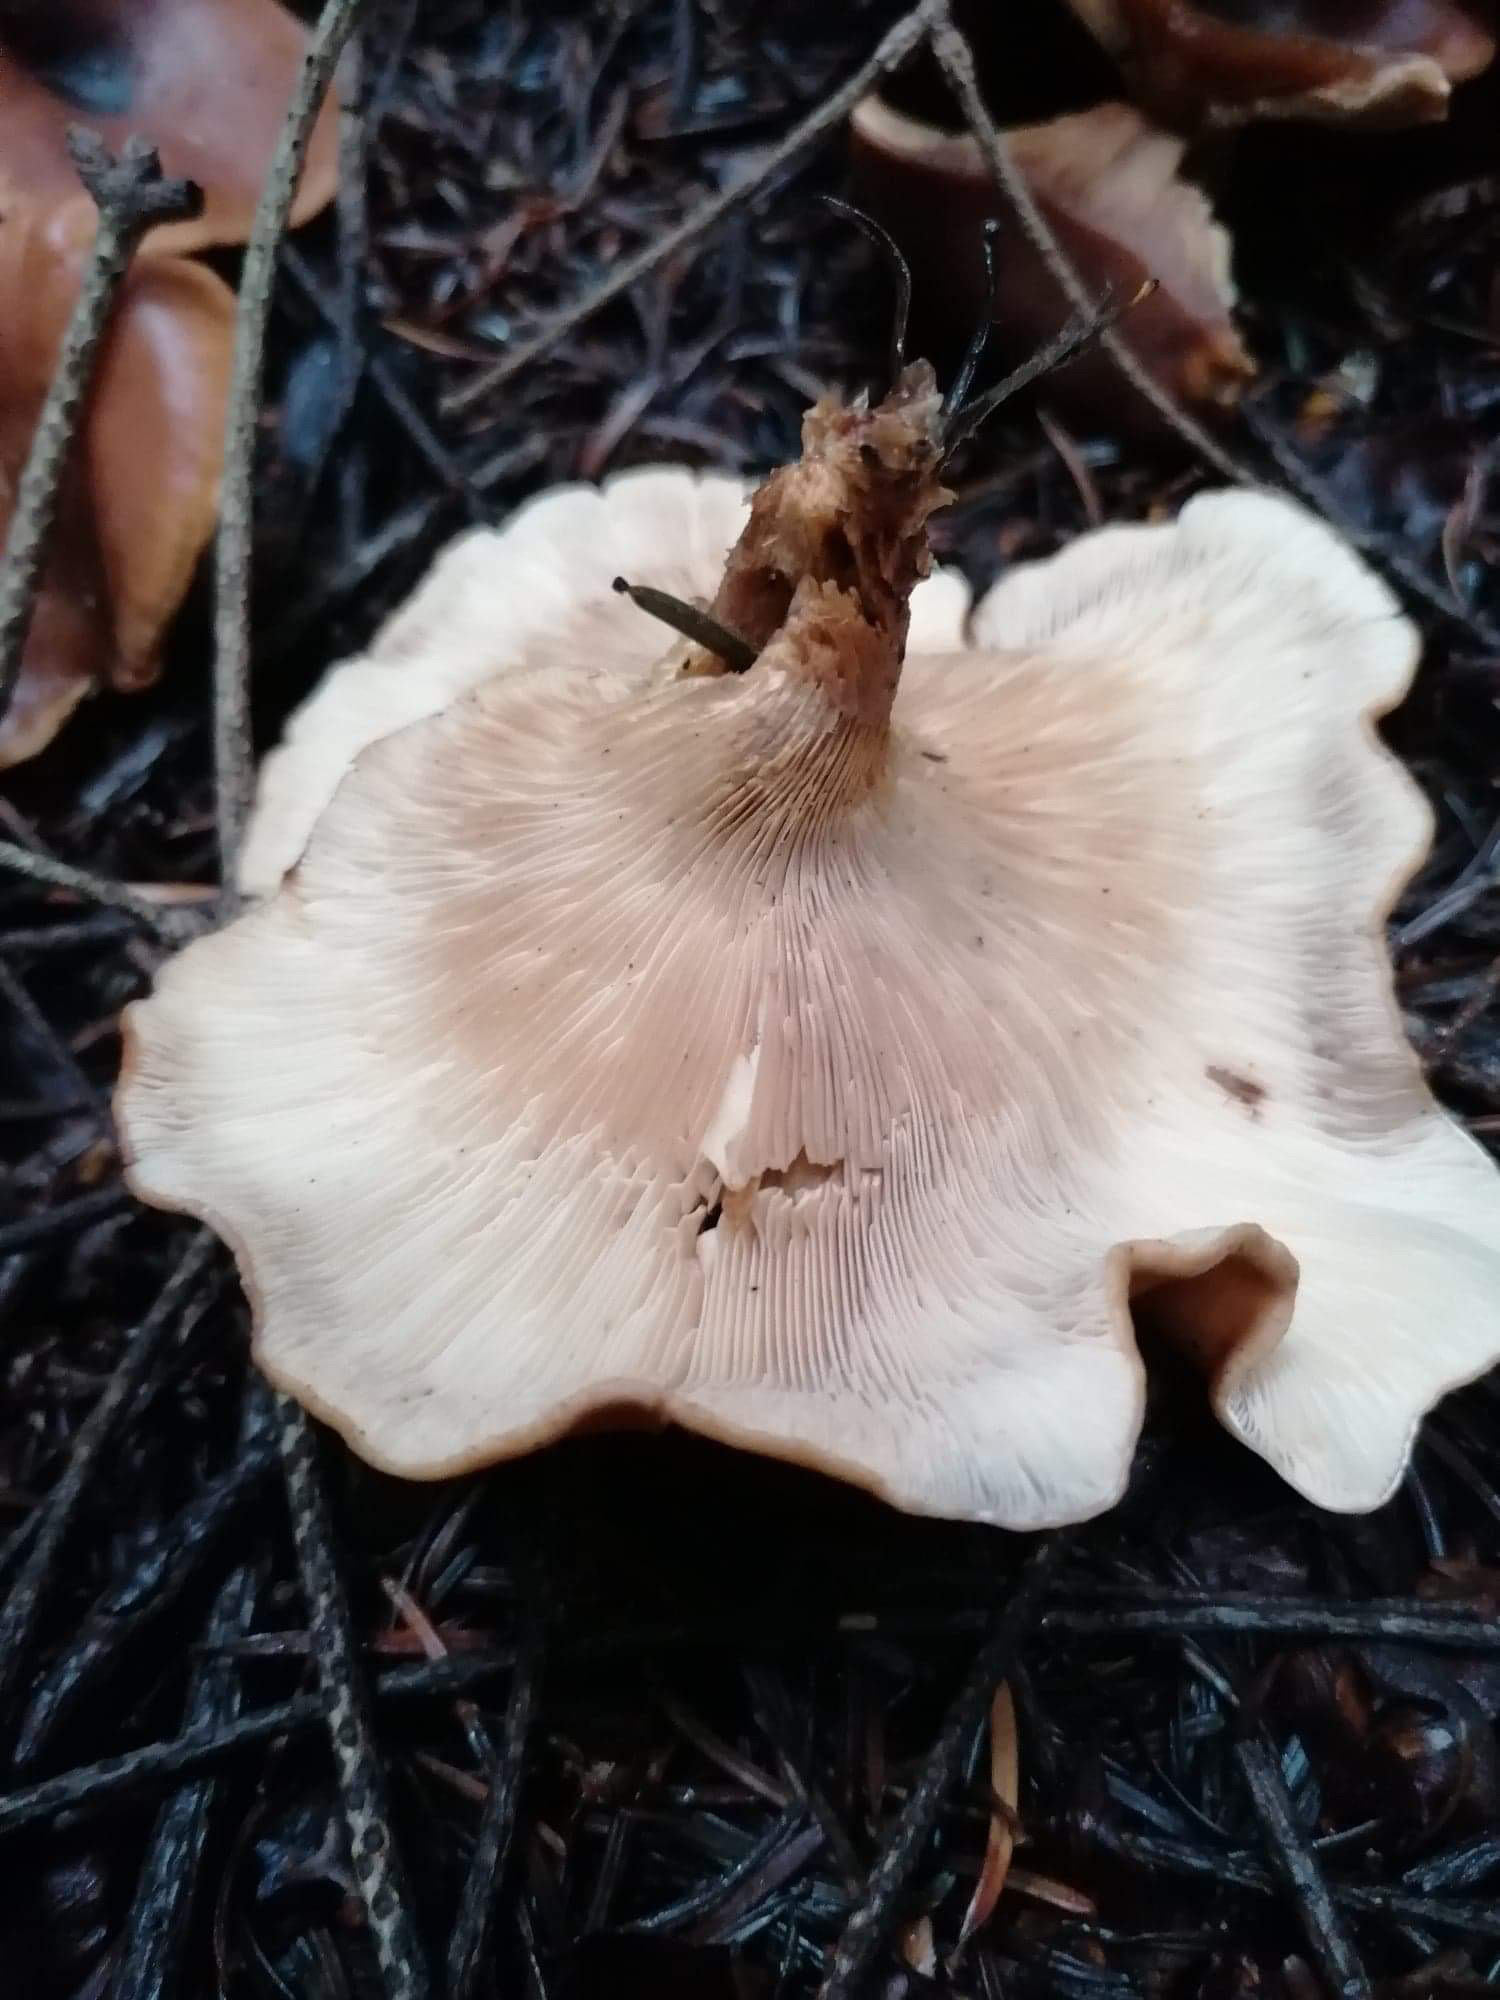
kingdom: Fungi
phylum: Basidiomycota
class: Agaricomycetes
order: Agaricales
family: Tricholomataceae
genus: Paralepista
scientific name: Paralepista flaccida
